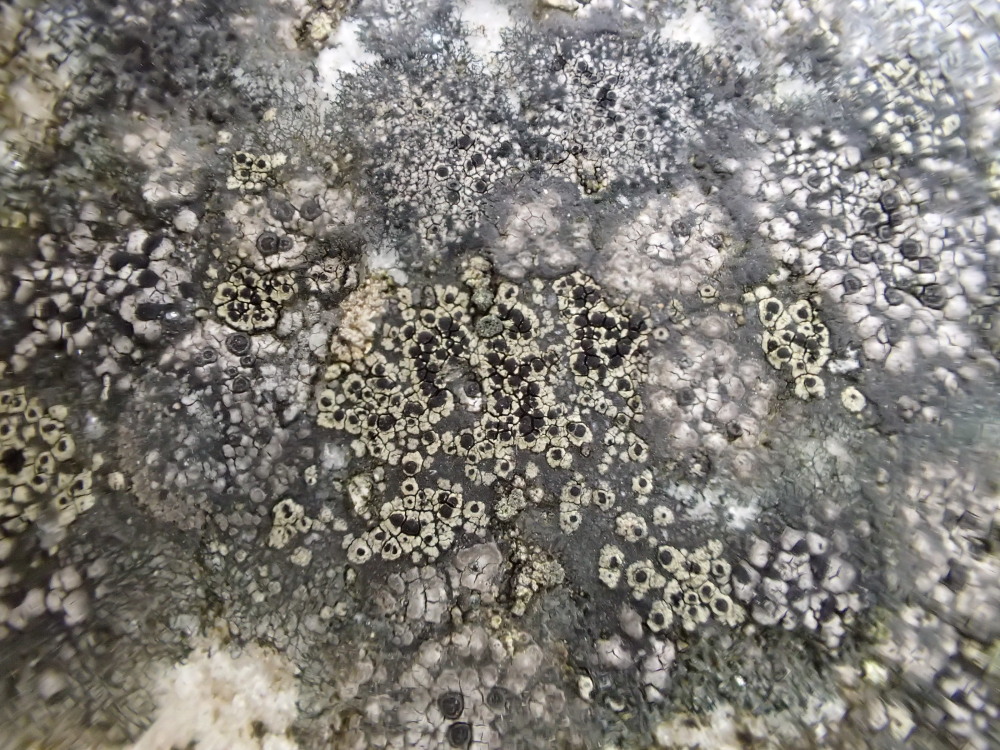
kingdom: Fungi
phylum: Ascomycota
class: Lecanoromycetes
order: Rhizocarpales
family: Rhizocarpaceae
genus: Rhizocarpon
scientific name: Rhizocarpon lecanorinum
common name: krave-landkortlav
